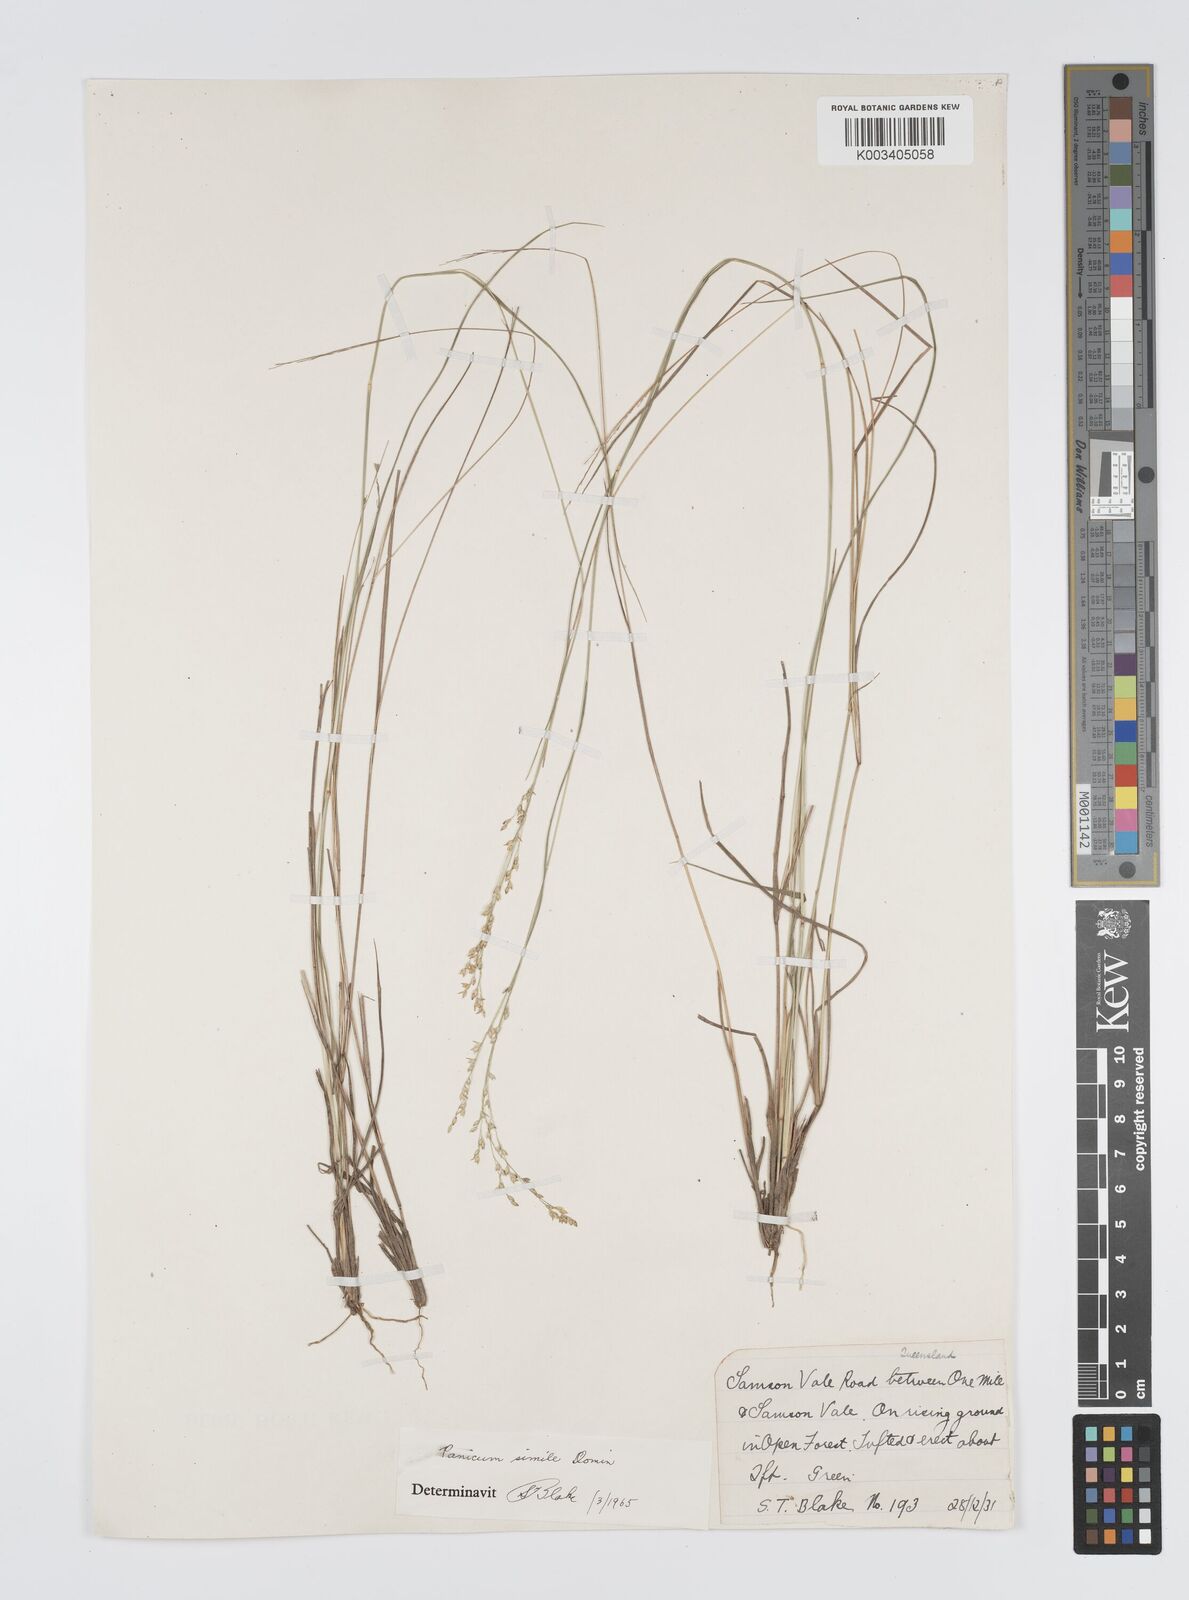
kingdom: Plantae
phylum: Tracheophyta
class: Liliopsida
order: Poales
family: Poaceae
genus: Panicum
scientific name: Panicum simile
